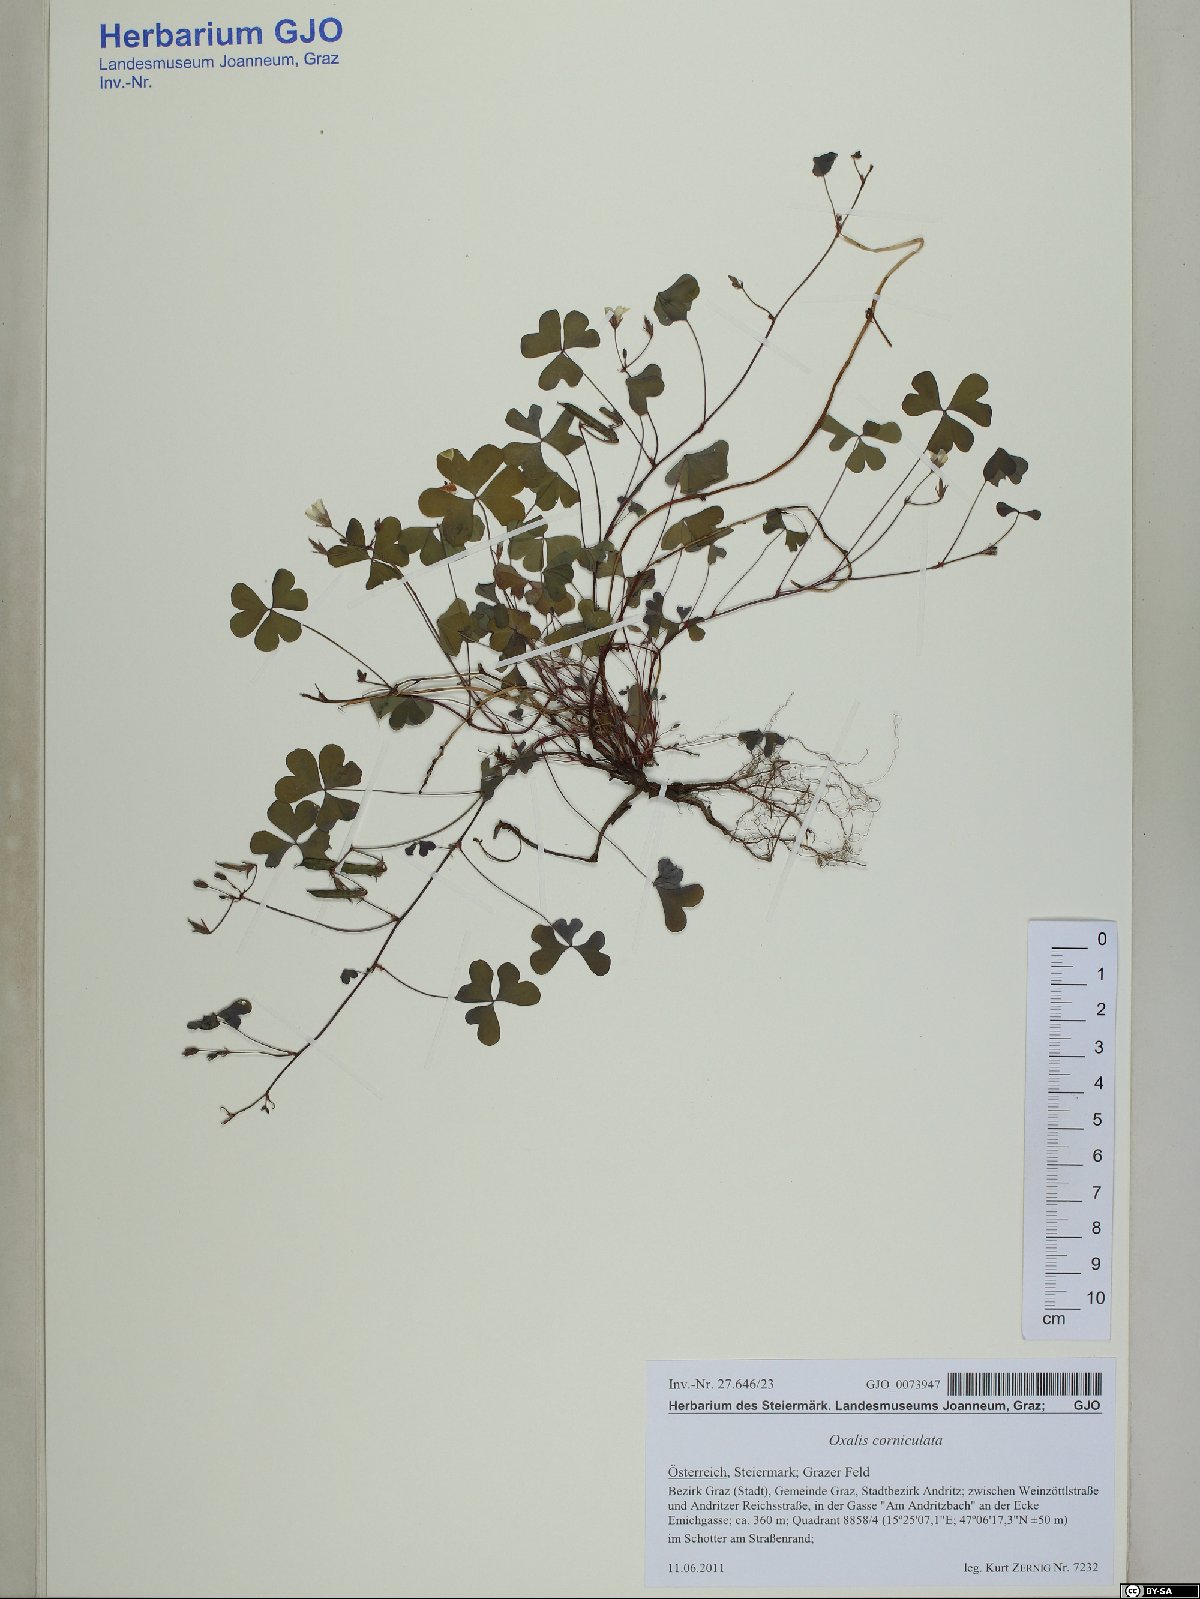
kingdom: Plantae
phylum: Tracheophyta
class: Magnoliopsida
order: Oxalidales
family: Oxalidaceae
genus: Oxalis
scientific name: Oxalis corniculata
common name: Procumbent yellow-sorrel
